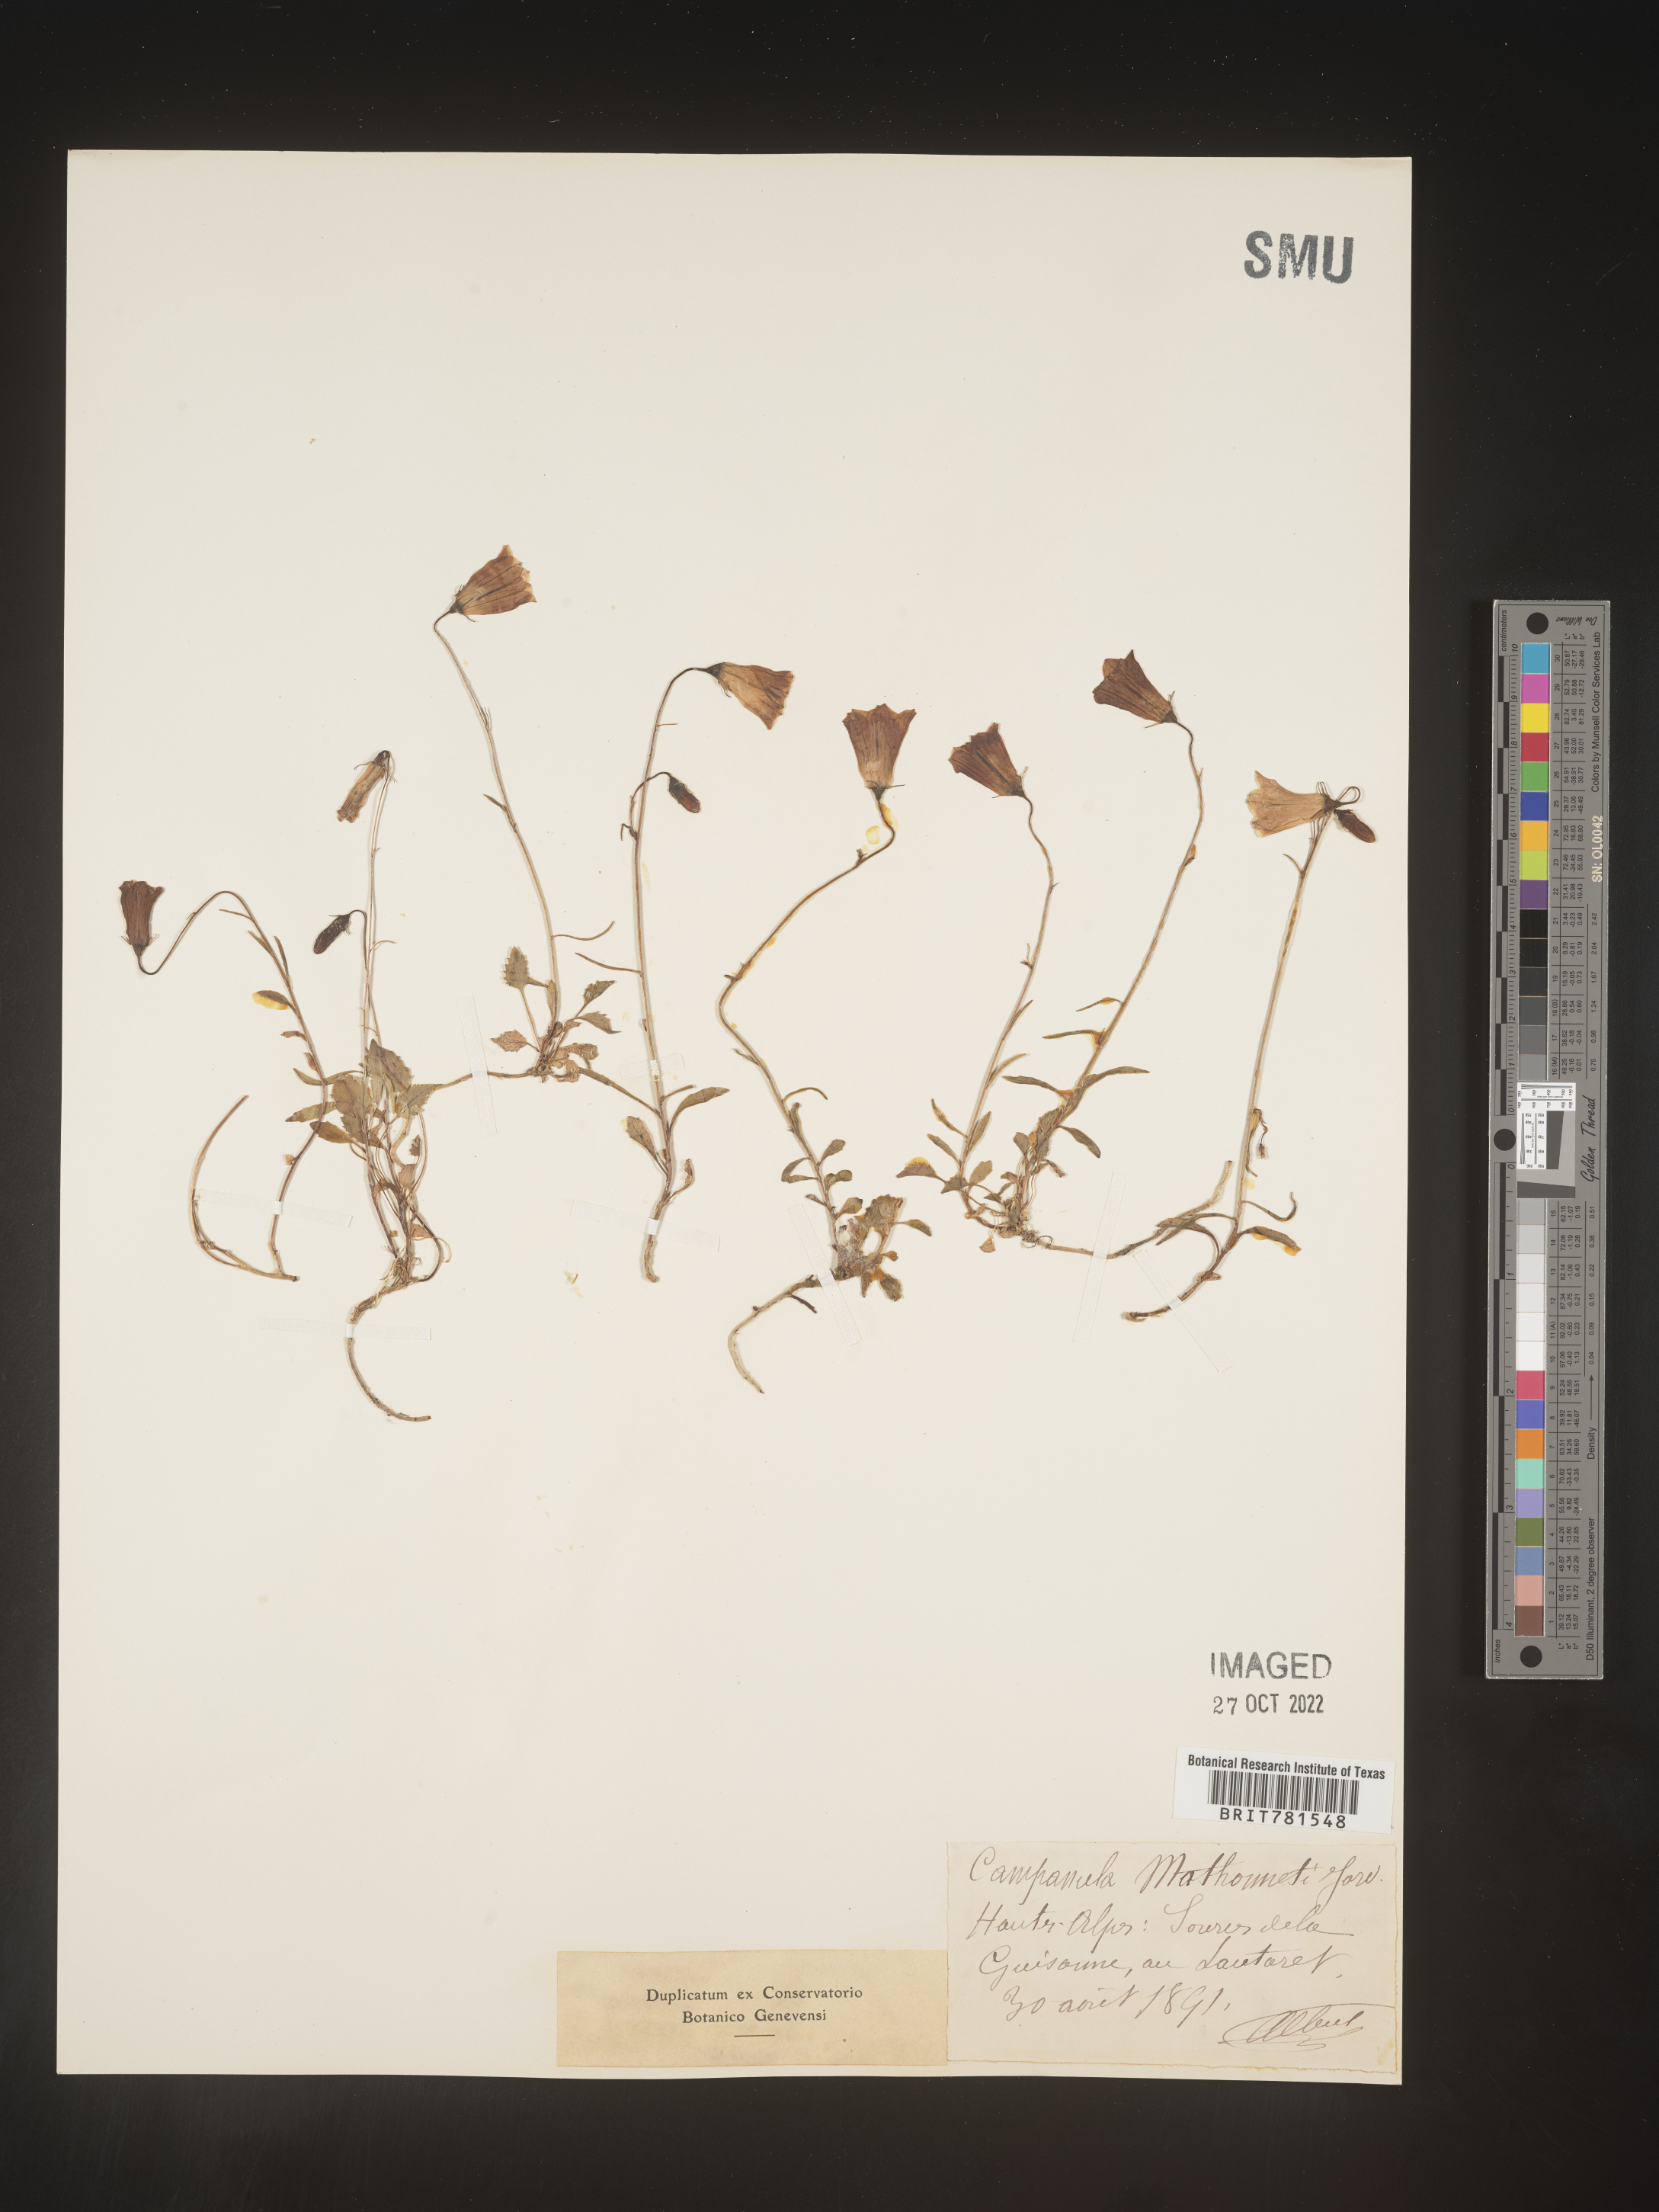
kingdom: Plantae
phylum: Tracheophyta
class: Magnoliopsida
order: Asterales
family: Campanulaceae
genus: Campanula
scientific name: Campanula
